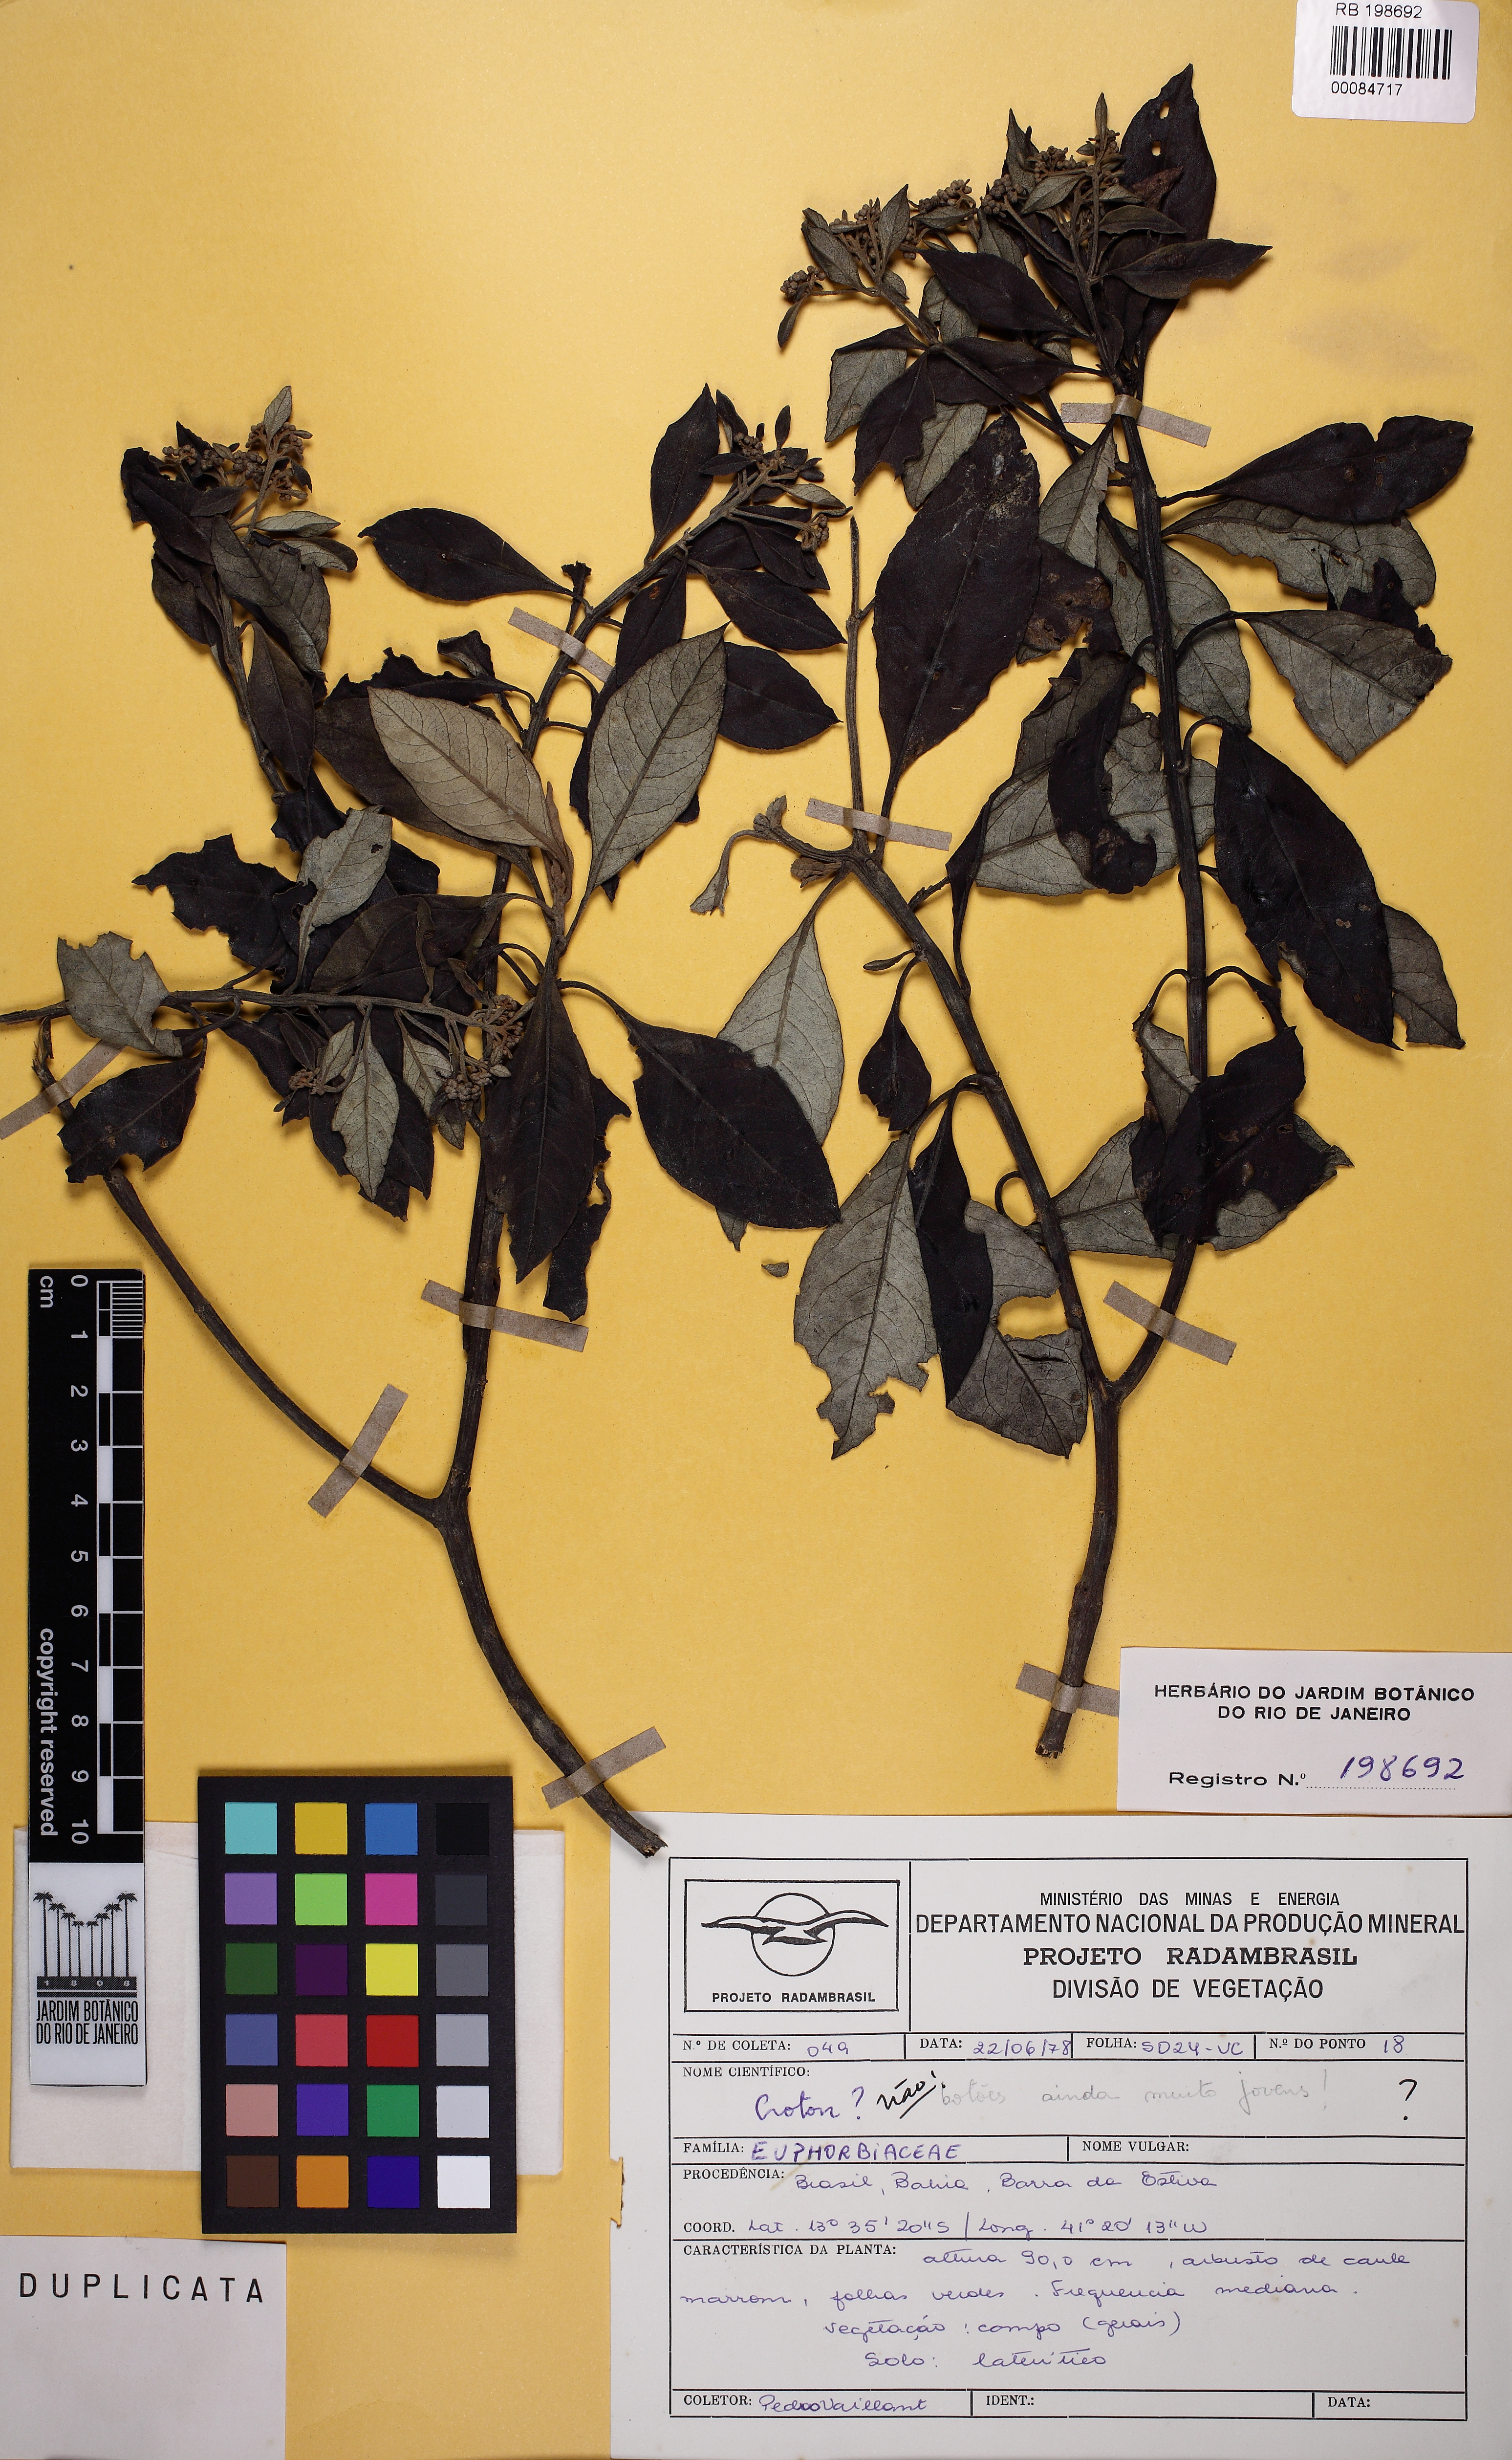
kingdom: Plantae
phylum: Tracheophyta
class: Magnoliopsida
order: Malpighiales
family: Euphorbiaceae
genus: Croton
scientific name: Croton
